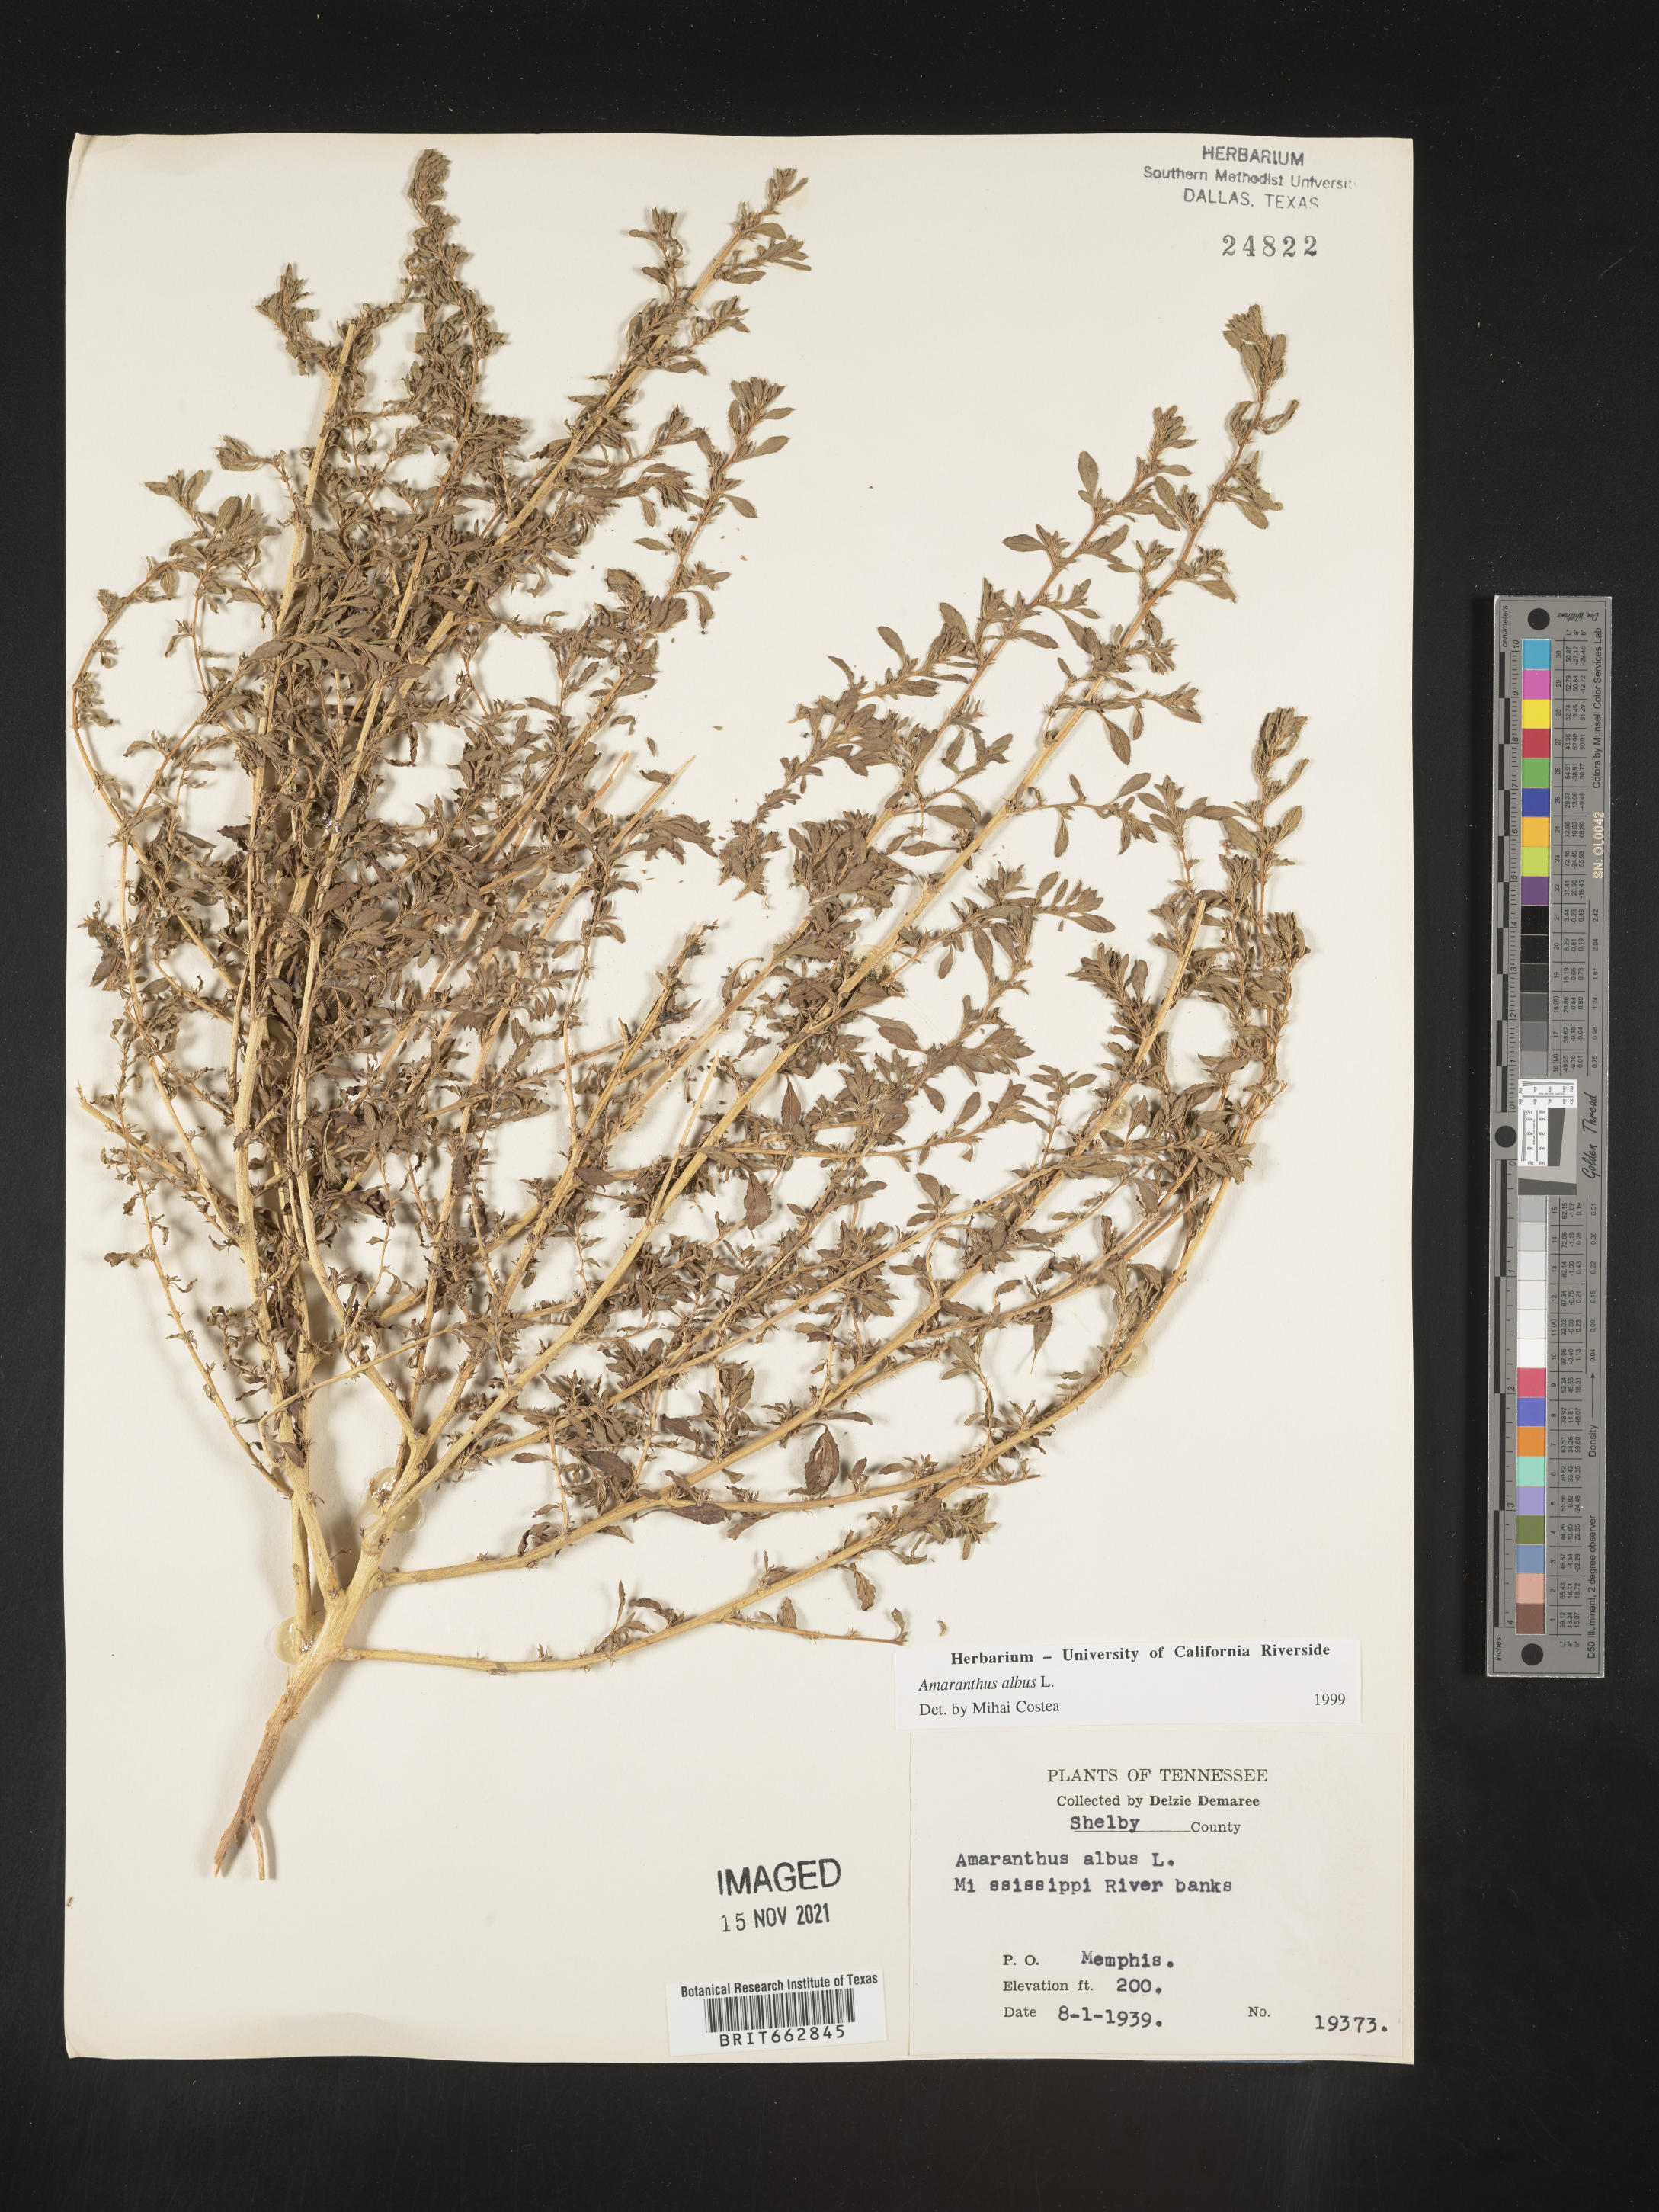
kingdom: Plantae
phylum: Tracheophyta
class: Magnoliopsida
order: Caryophyllales
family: Amaranthaceae
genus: Amaranthus
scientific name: Amaranthus albus
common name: White pigweed
